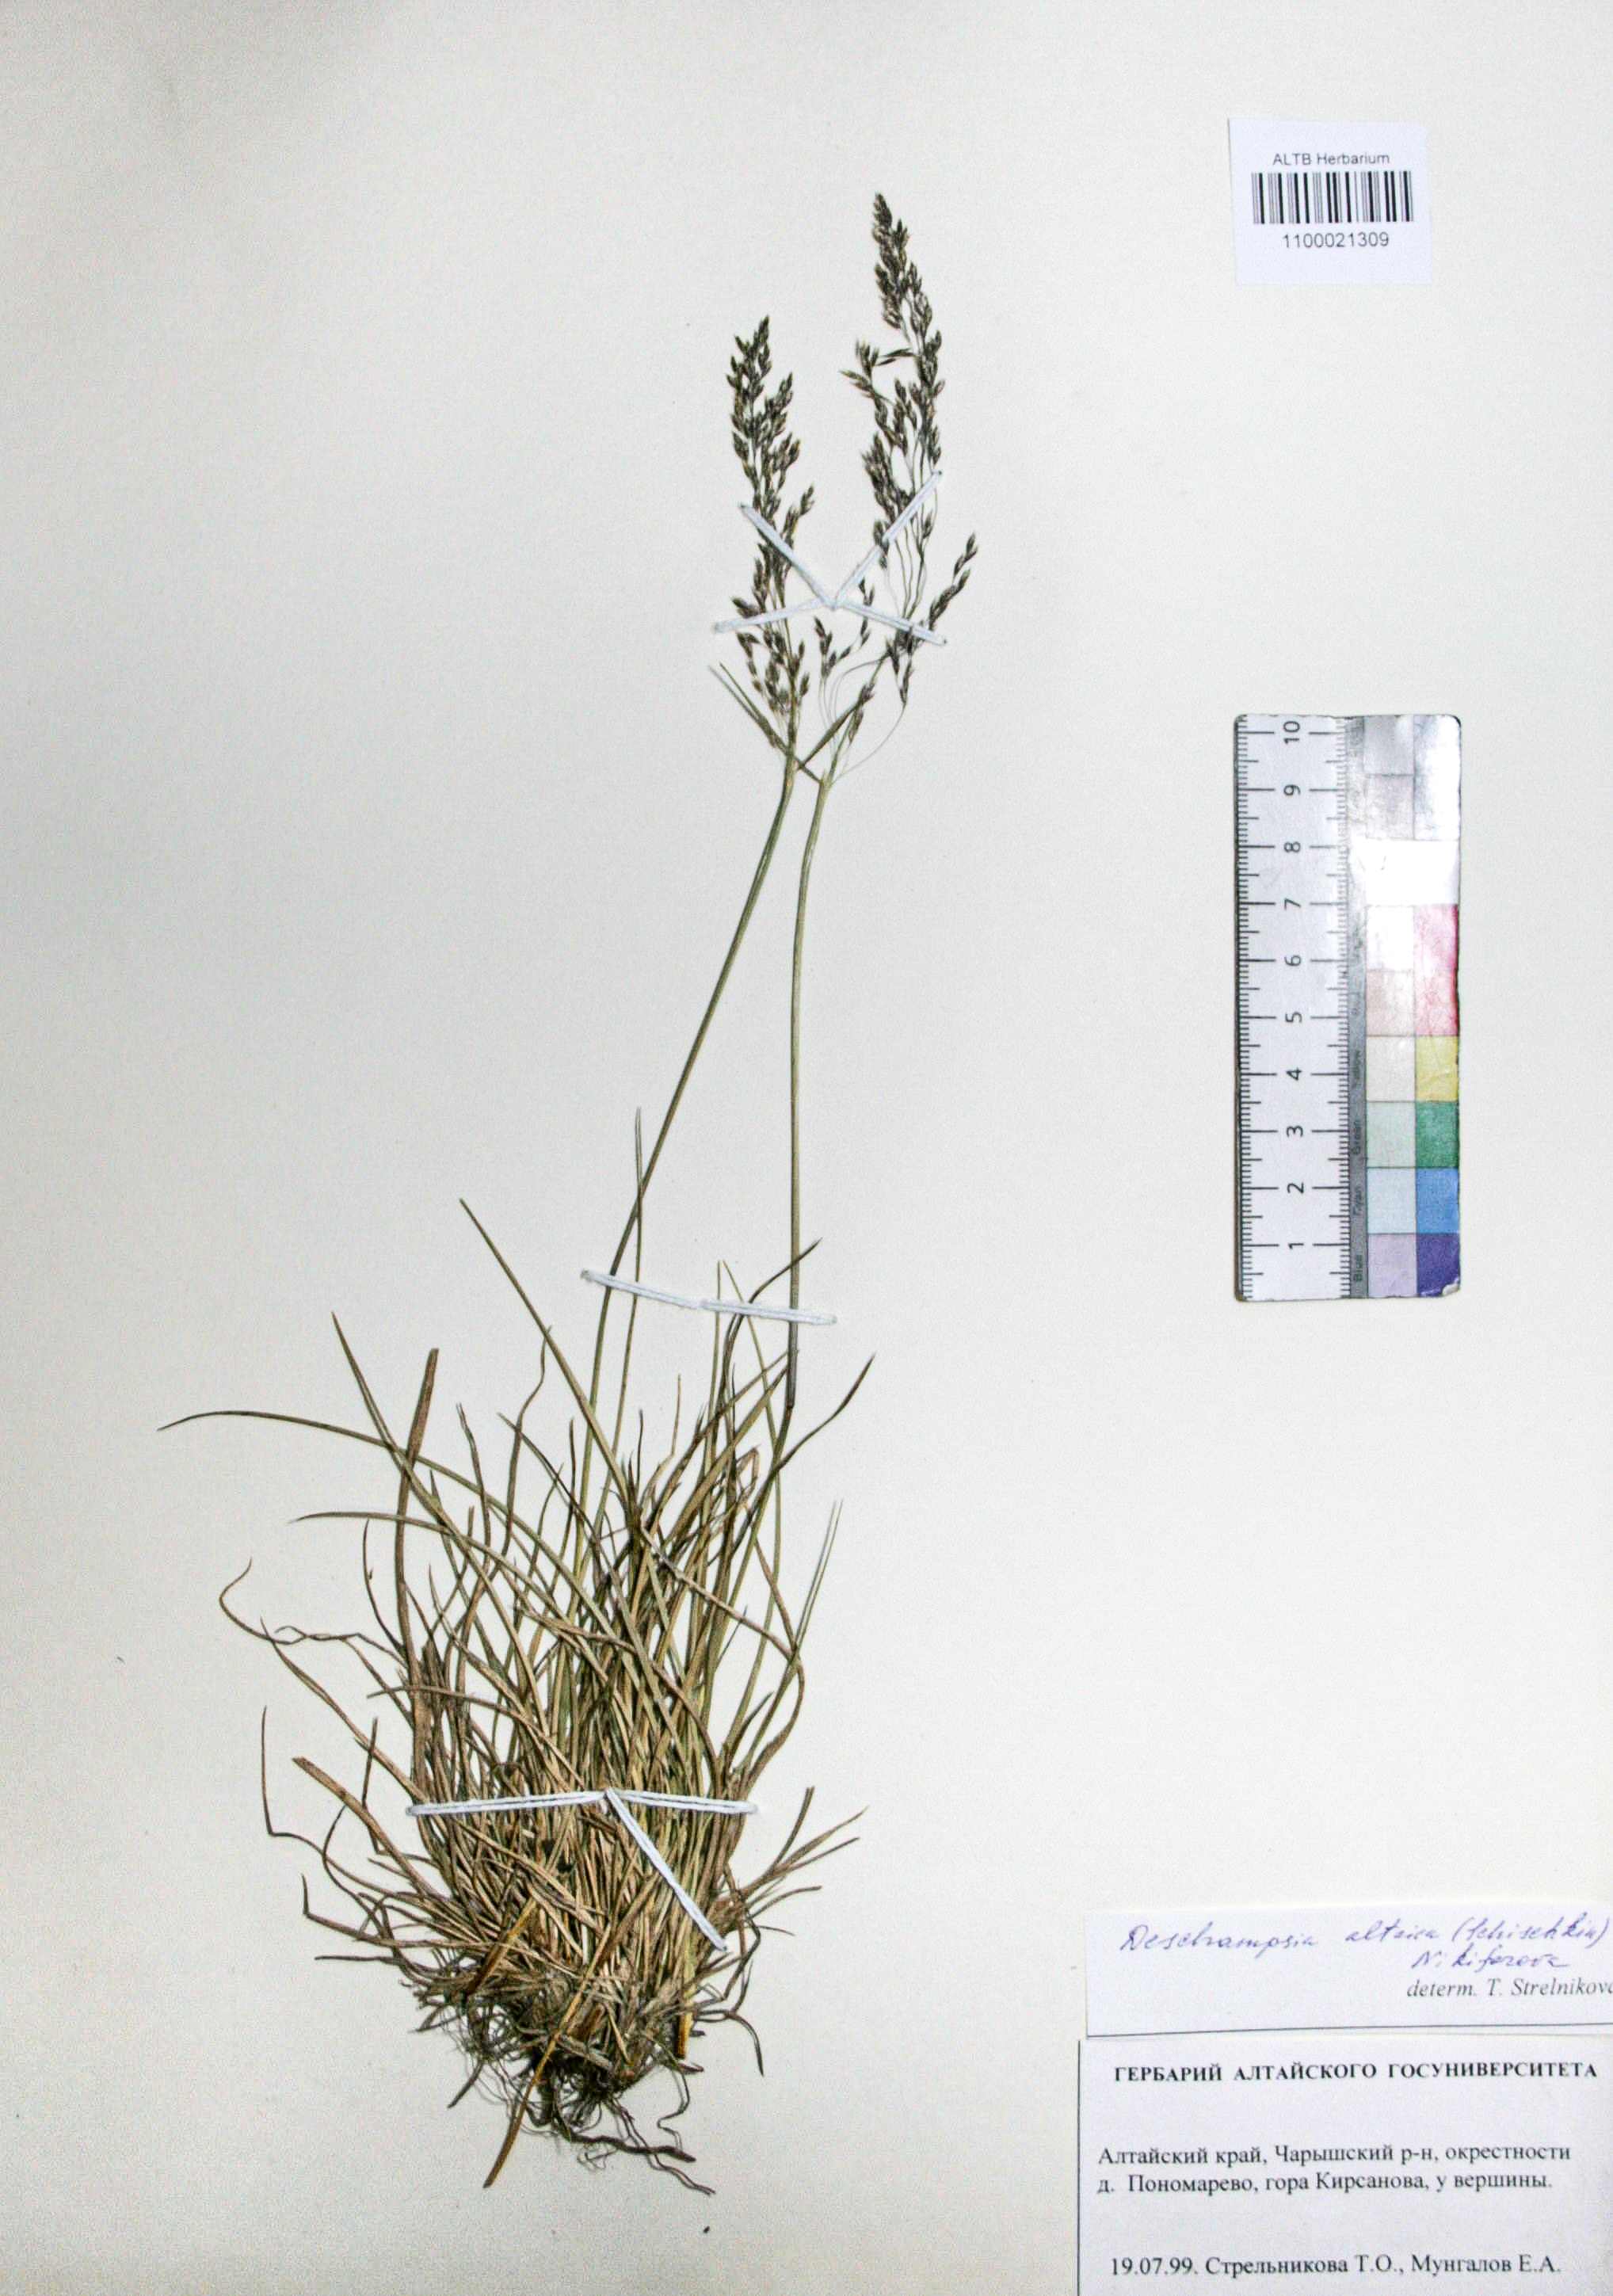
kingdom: Plantae
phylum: Tracheophyta
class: Liliopsida
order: Poales
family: Poaceae
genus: Deschampsia
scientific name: Deschampsia cespitosa
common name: Tufted hair-grass
